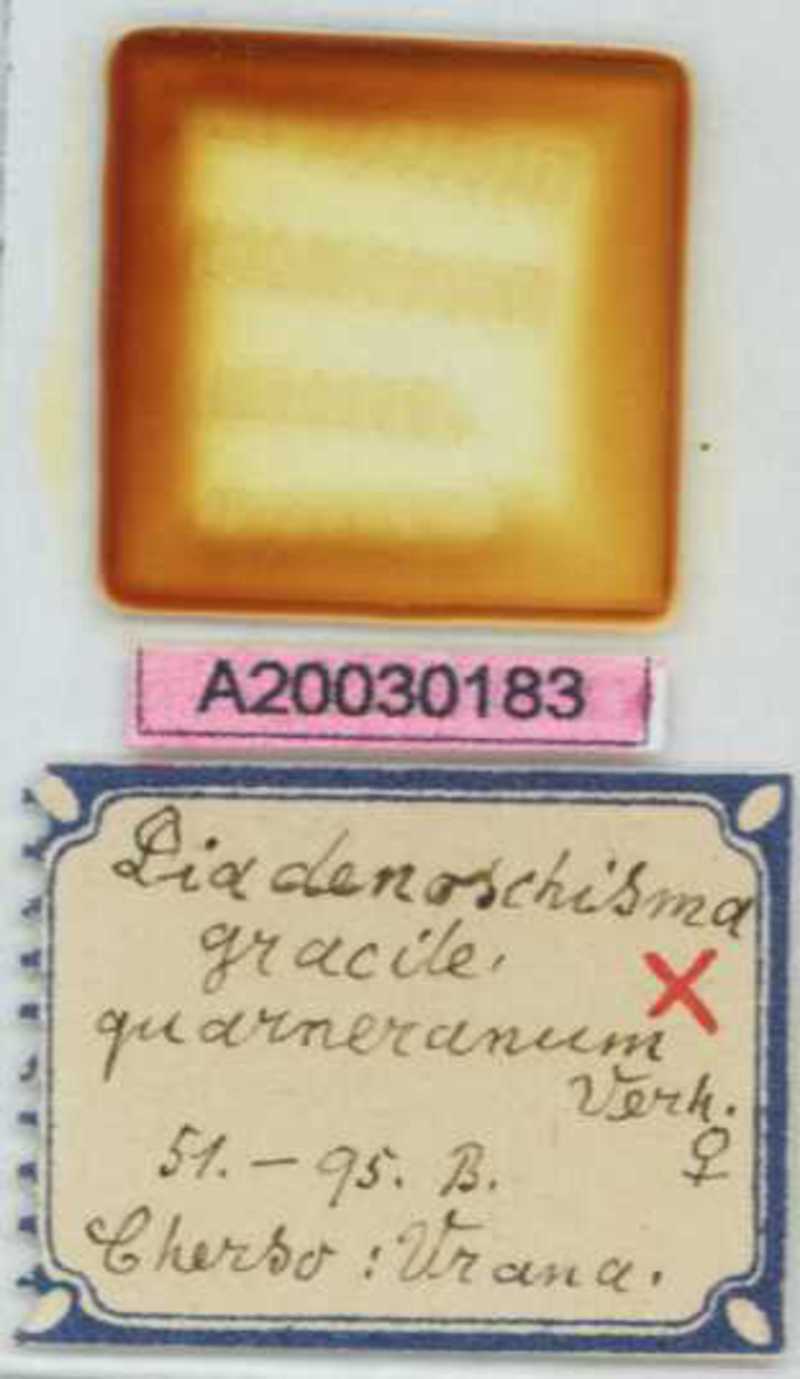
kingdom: Animalia
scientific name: Animalia
